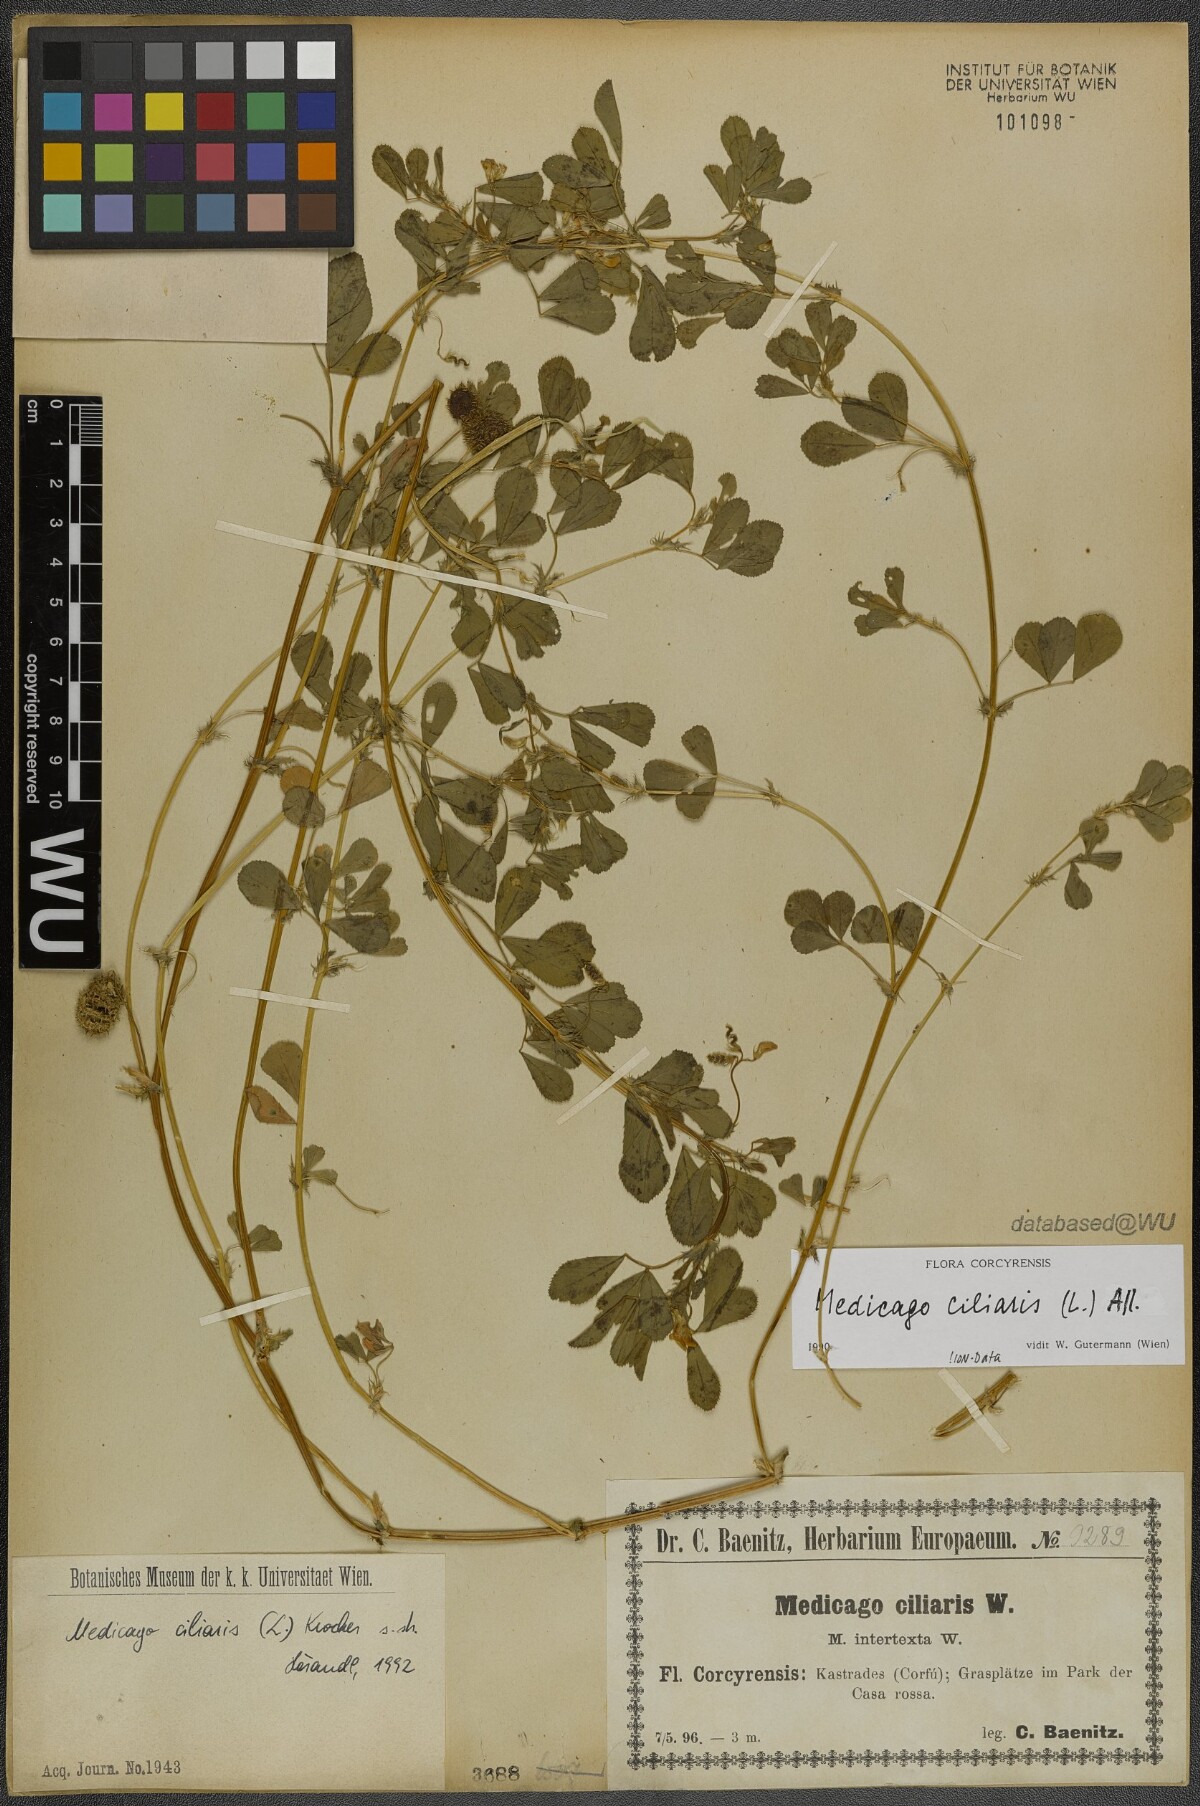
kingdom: Plantae
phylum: Tracheophyta
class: Magnoliopsida
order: Fabales
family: Fabaceae
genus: Medicago
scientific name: Medicago ciliaris
